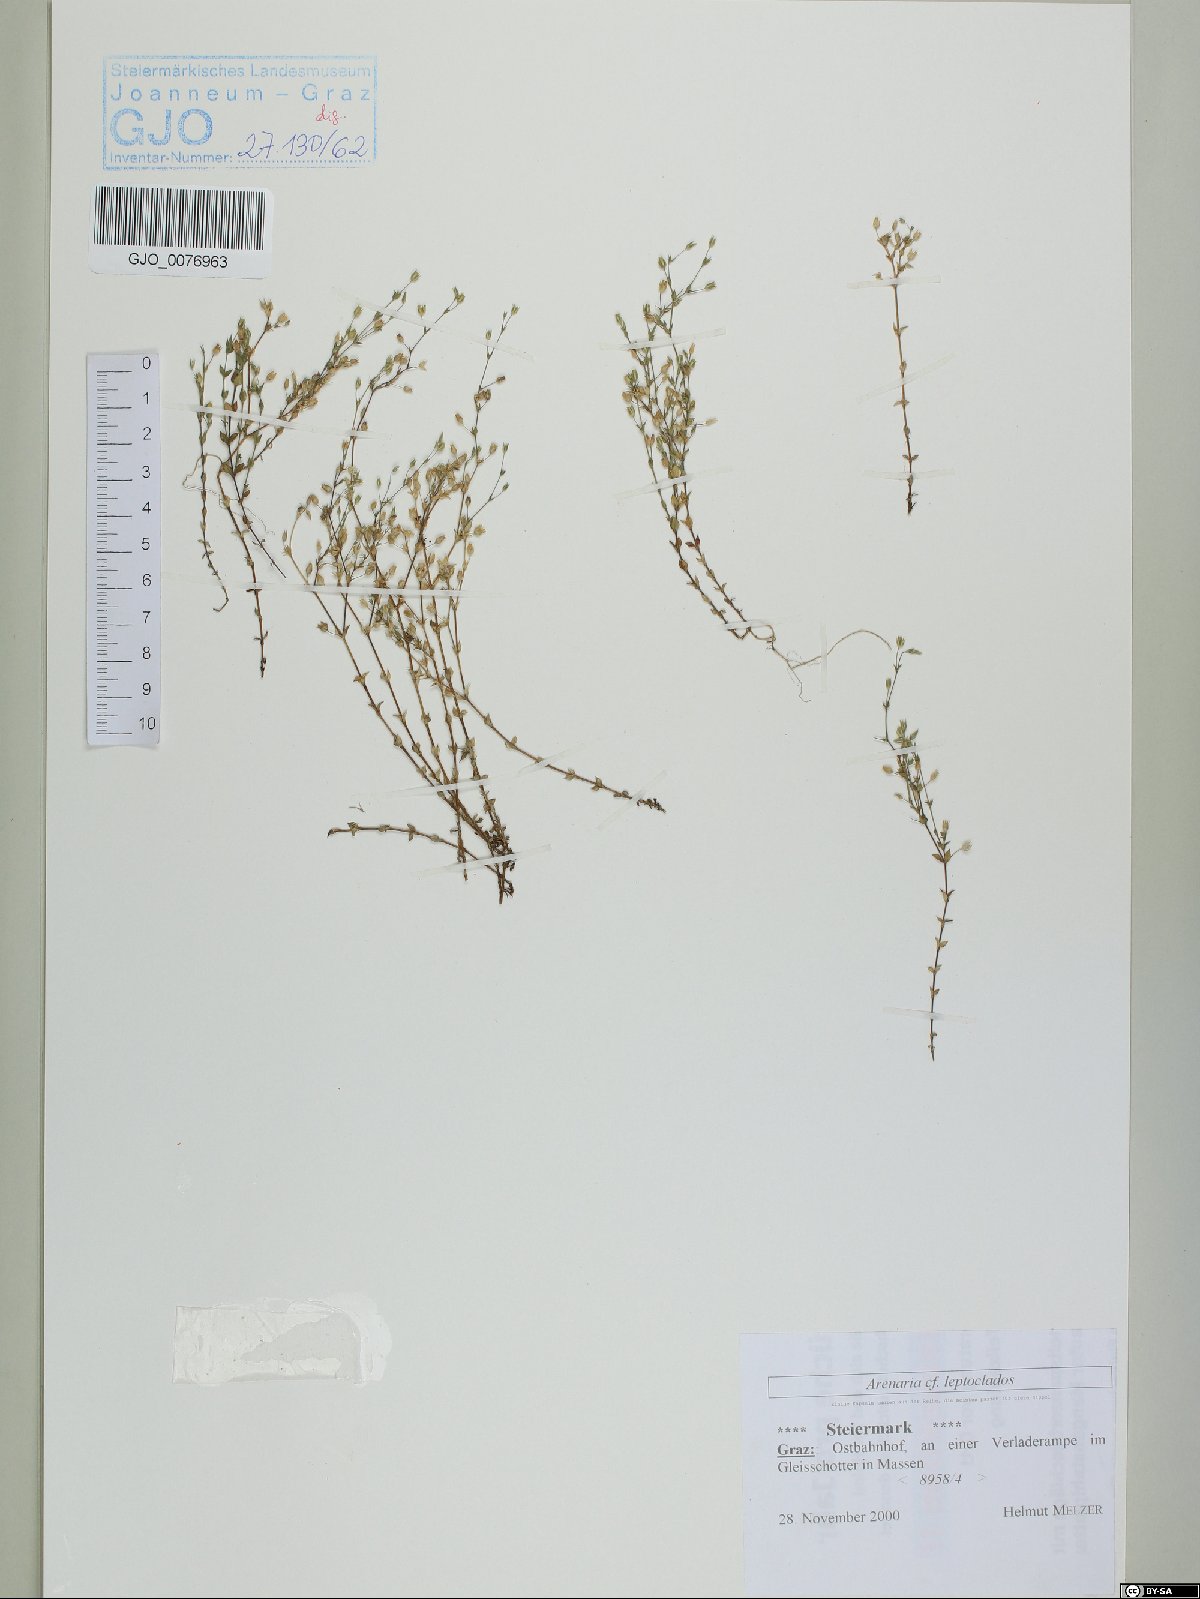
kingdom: Plantae
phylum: Tracheophyta
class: Magnoliopsida
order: Caryophyllales
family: Caryophyllaceae
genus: Arenaria
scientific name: Arenaria leptoclados
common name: Thyme-leaved sandwort
